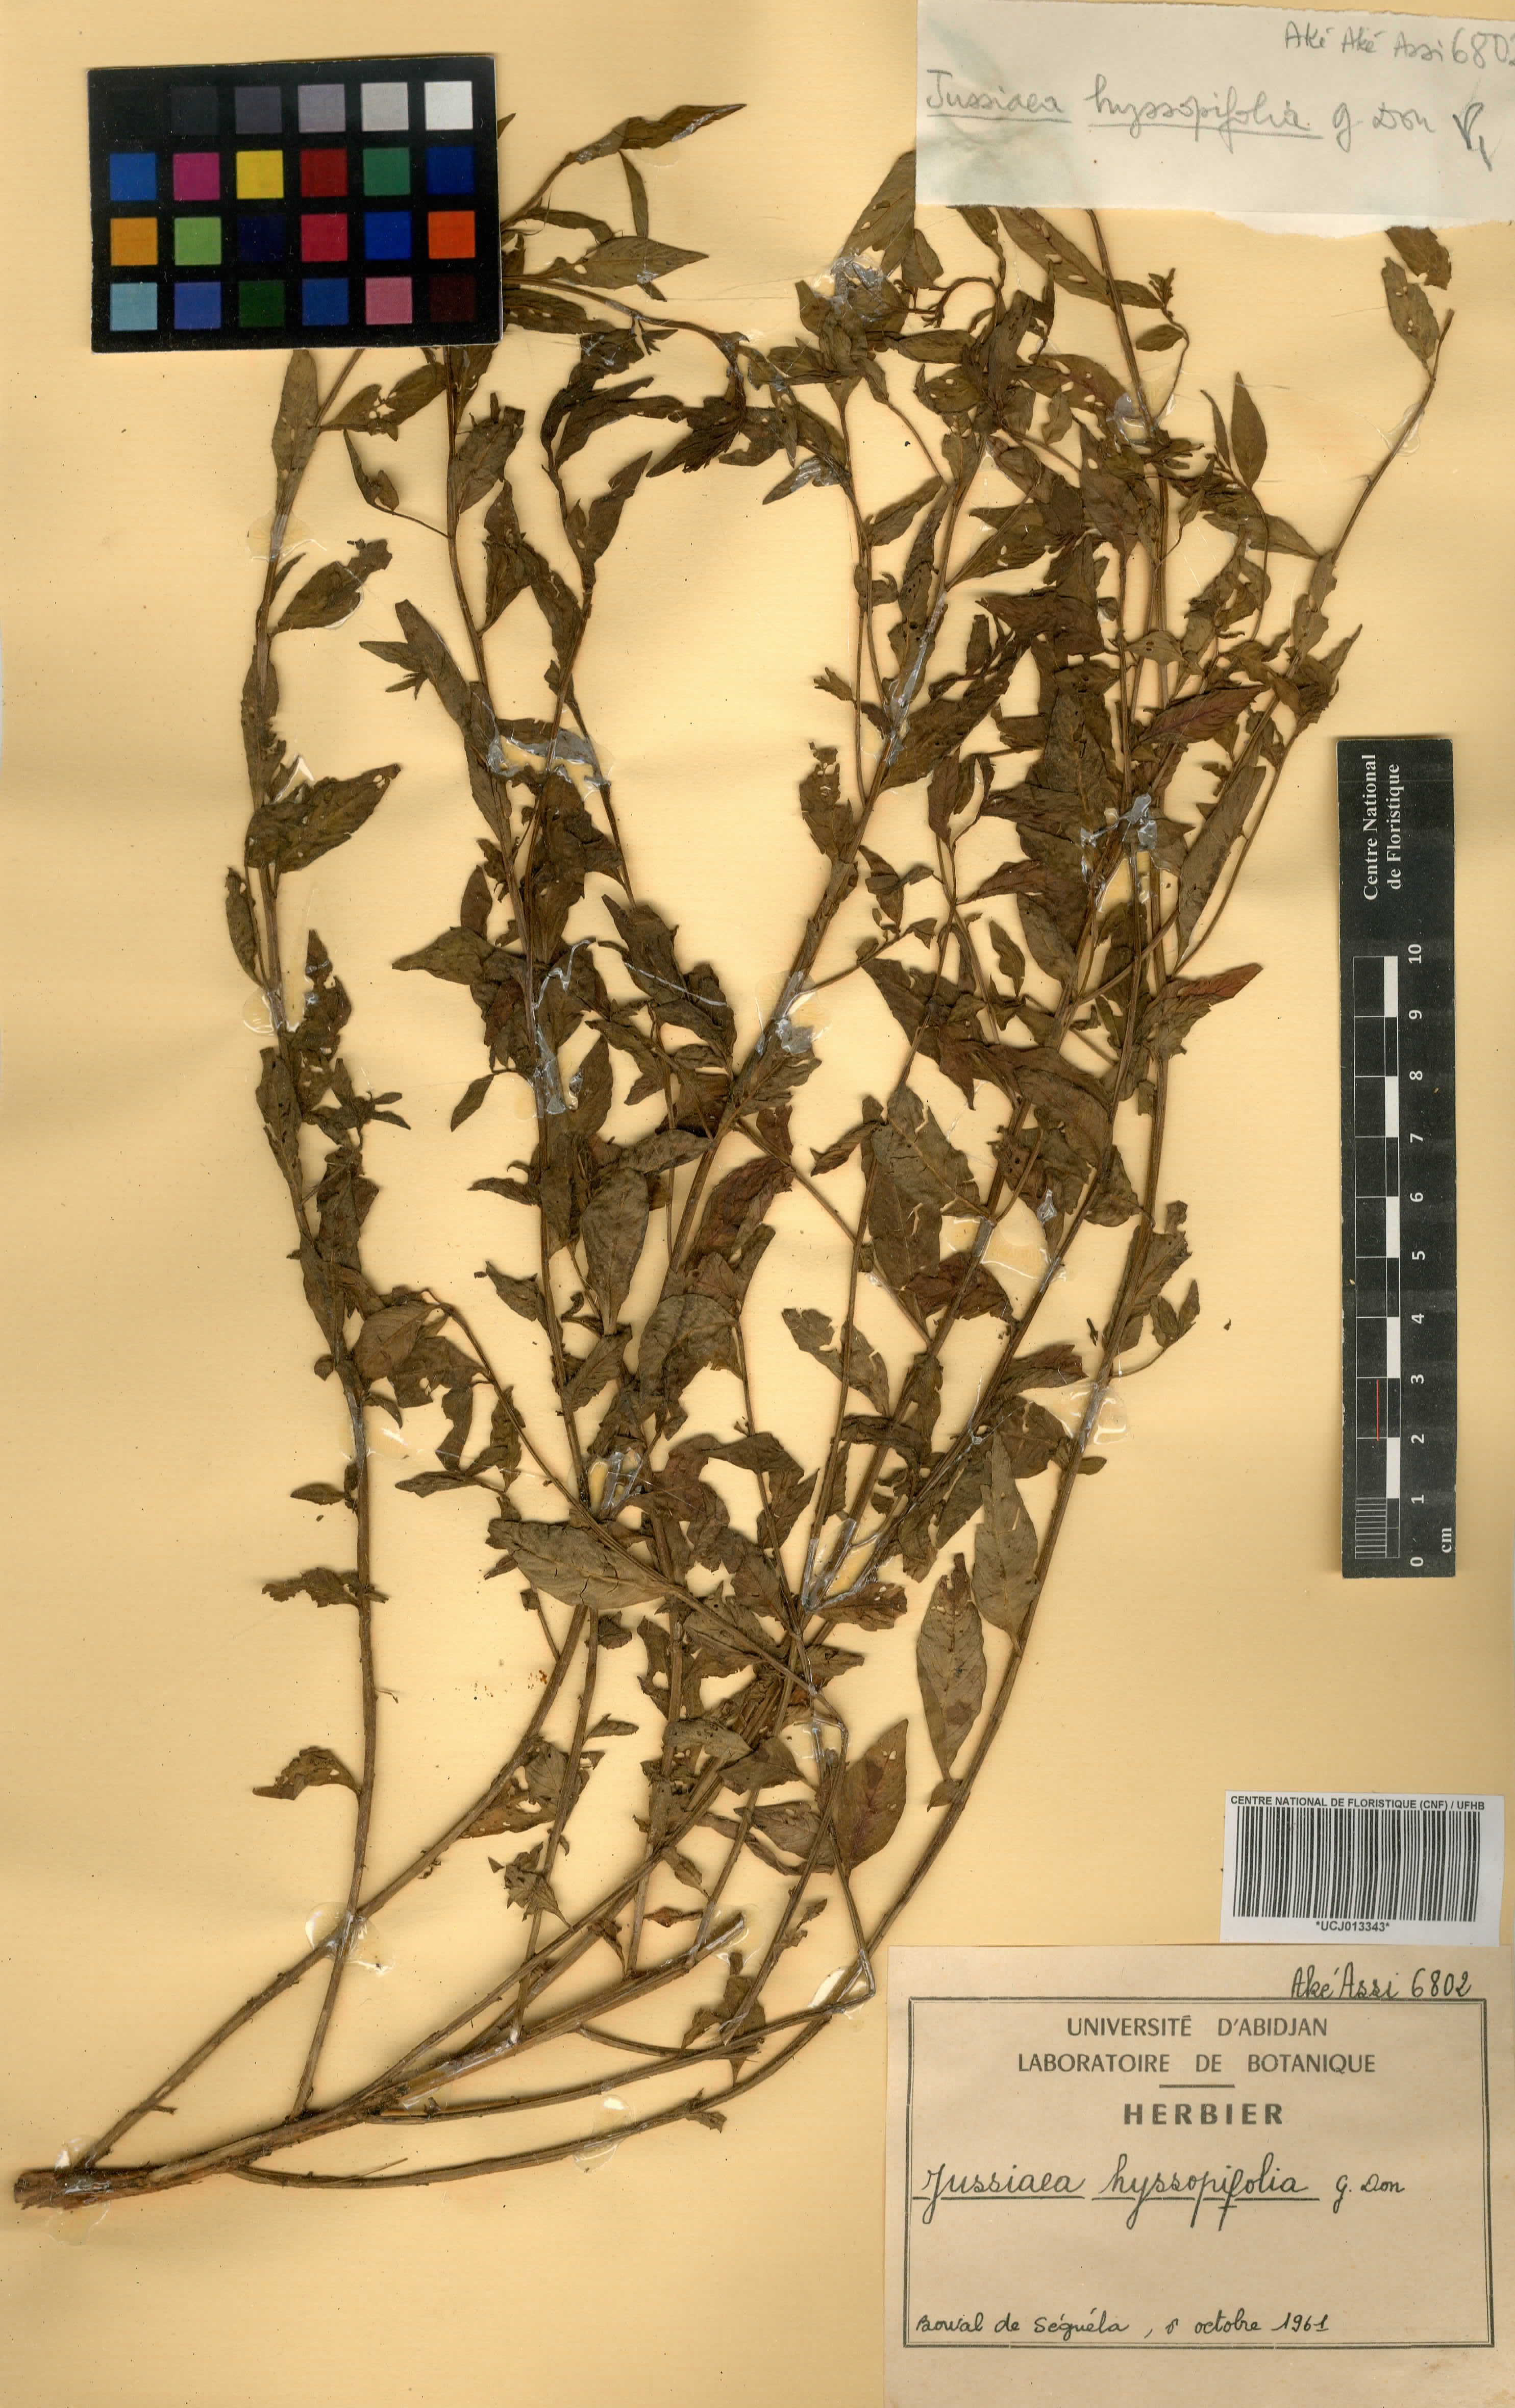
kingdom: Plantae
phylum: Tracheophyta
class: Magnoliopsida
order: Myrtales
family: Onagraceae
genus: Ludwigia
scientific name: Ludwigia hyssopifolia
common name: Linear leaf water primrose
